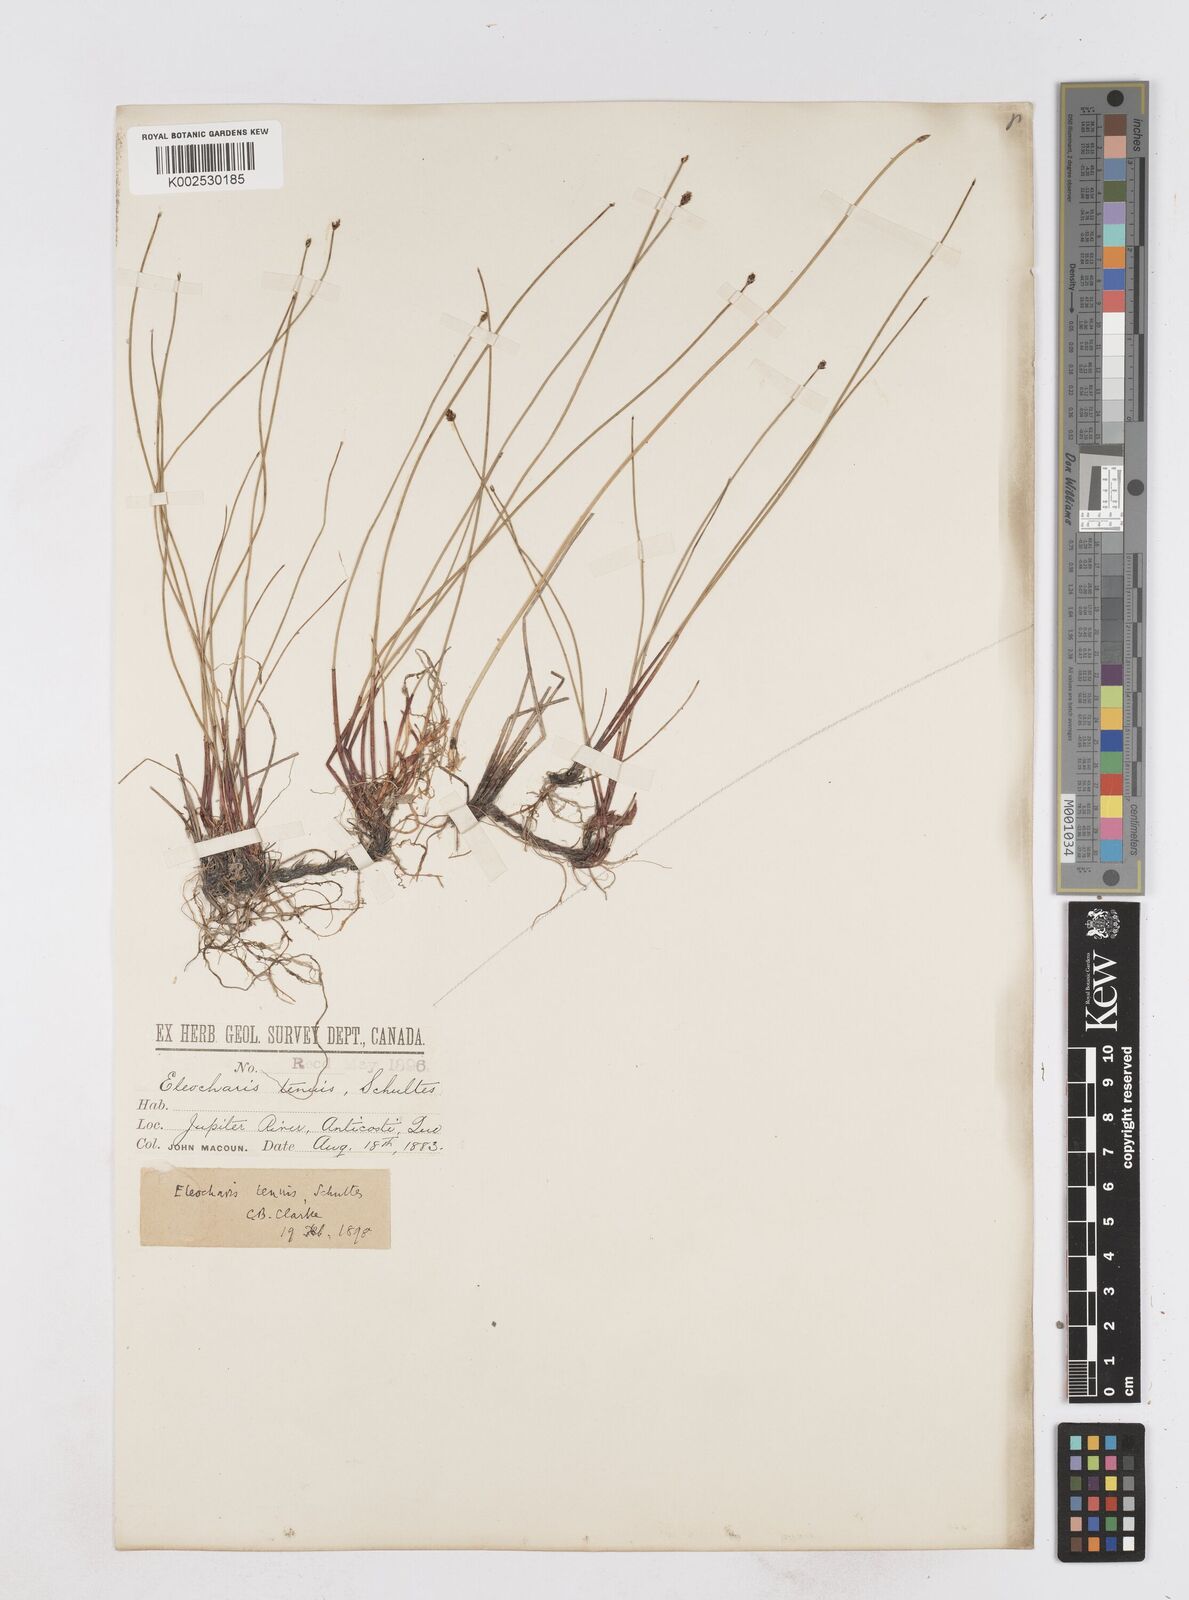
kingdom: Plantae
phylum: Tracheophyta
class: Liliopsida
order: Poales
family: Cyperaceae
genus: Eleocharis
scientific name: Eleocharis tenuis
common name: Dog's hair
